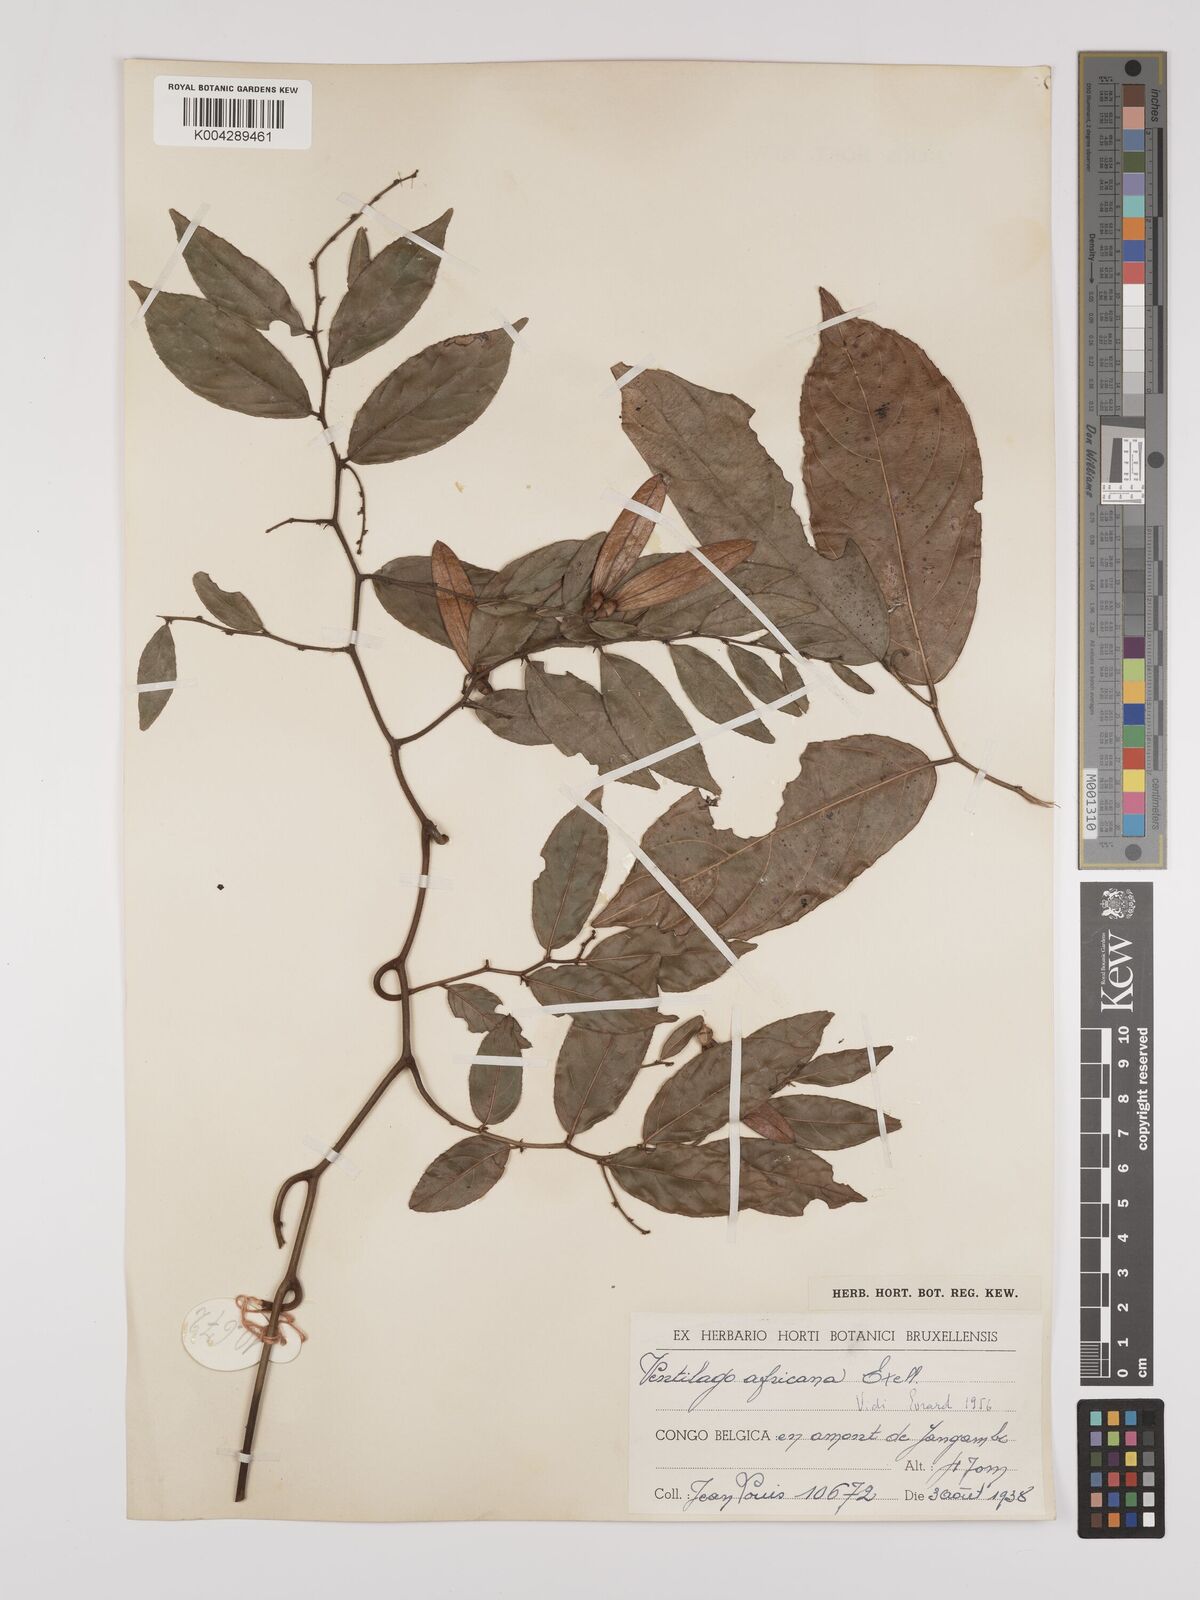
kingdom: Plantae
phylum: Tracheophyta
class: Magnoliopsida
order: Rosales
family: Rhamnaceae
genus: Ventilago
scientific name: Ventilago africana
